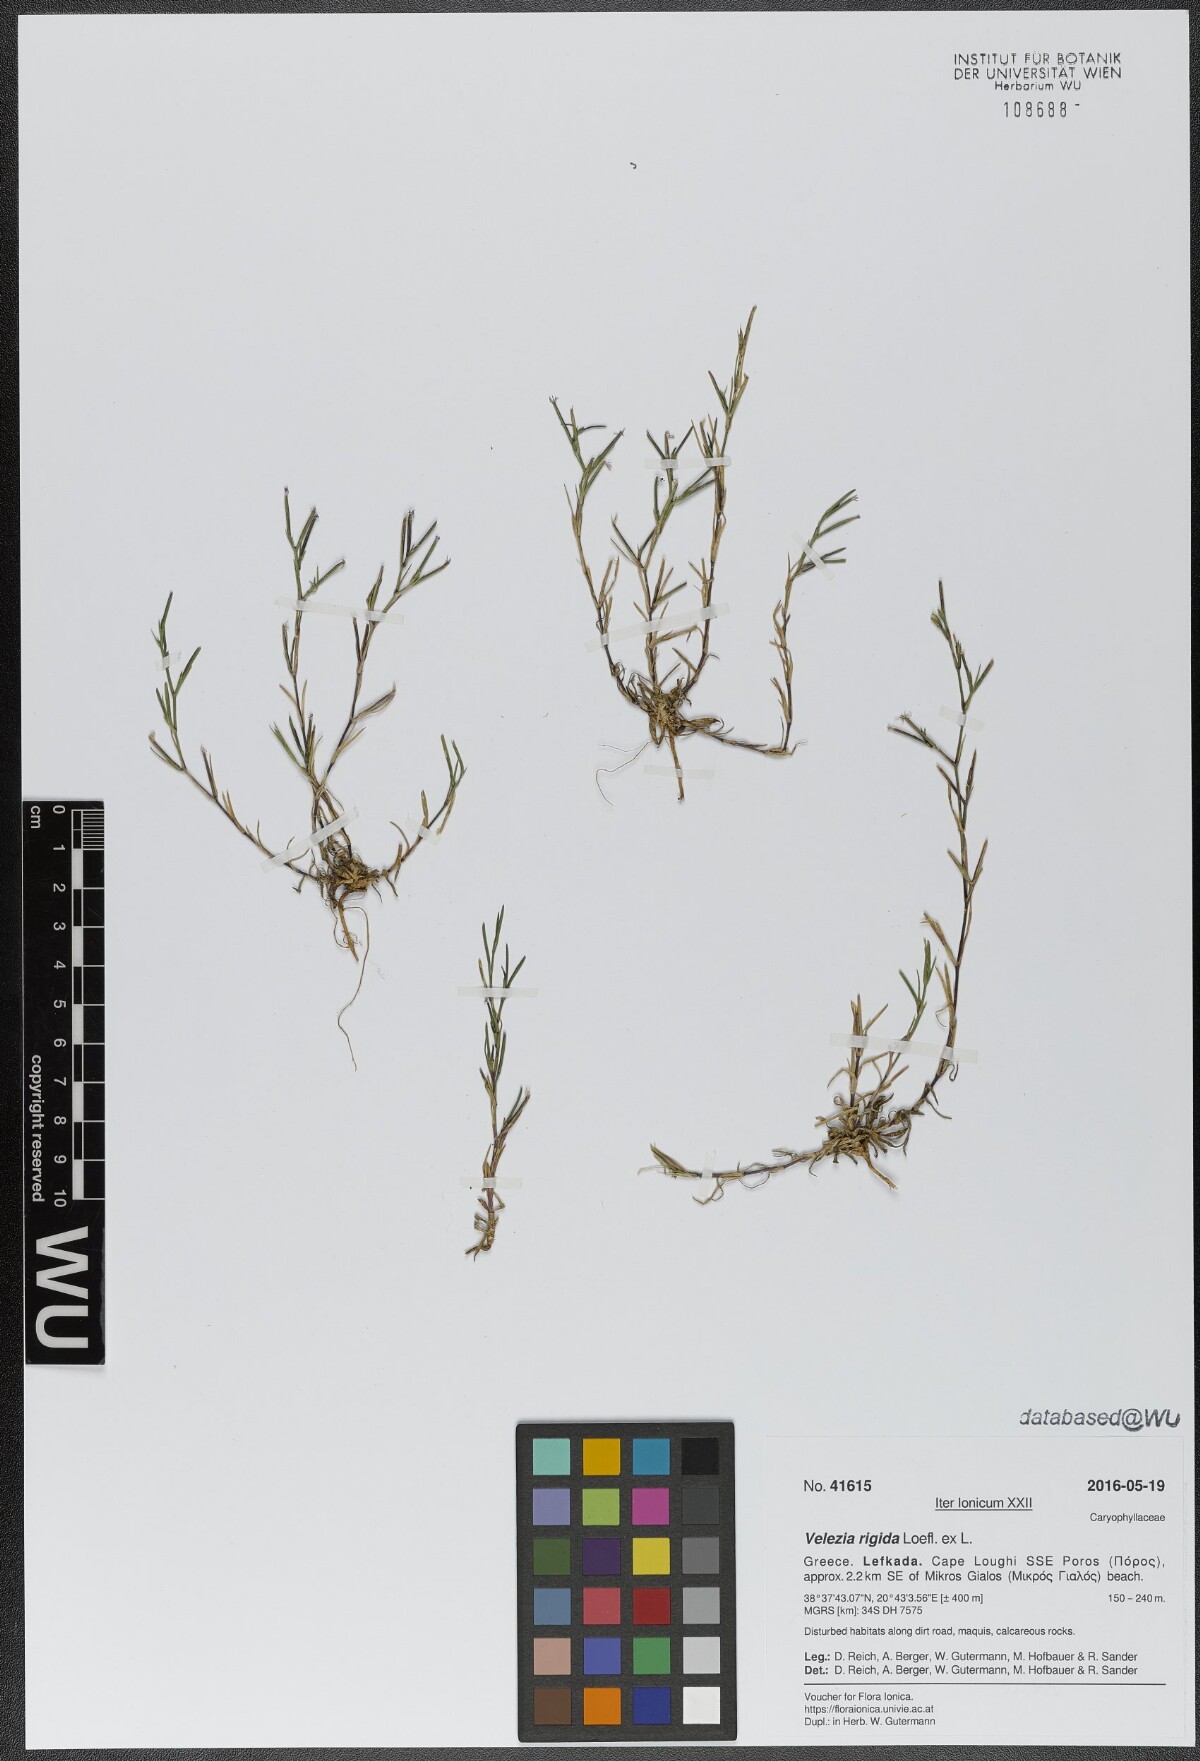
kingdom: Plantae
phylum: Tracheophyta
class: Magnoliopsida
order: Caryophyllales
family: Caryophyllaceae
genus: Dianthus
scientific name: Dianthus nudiflorus
